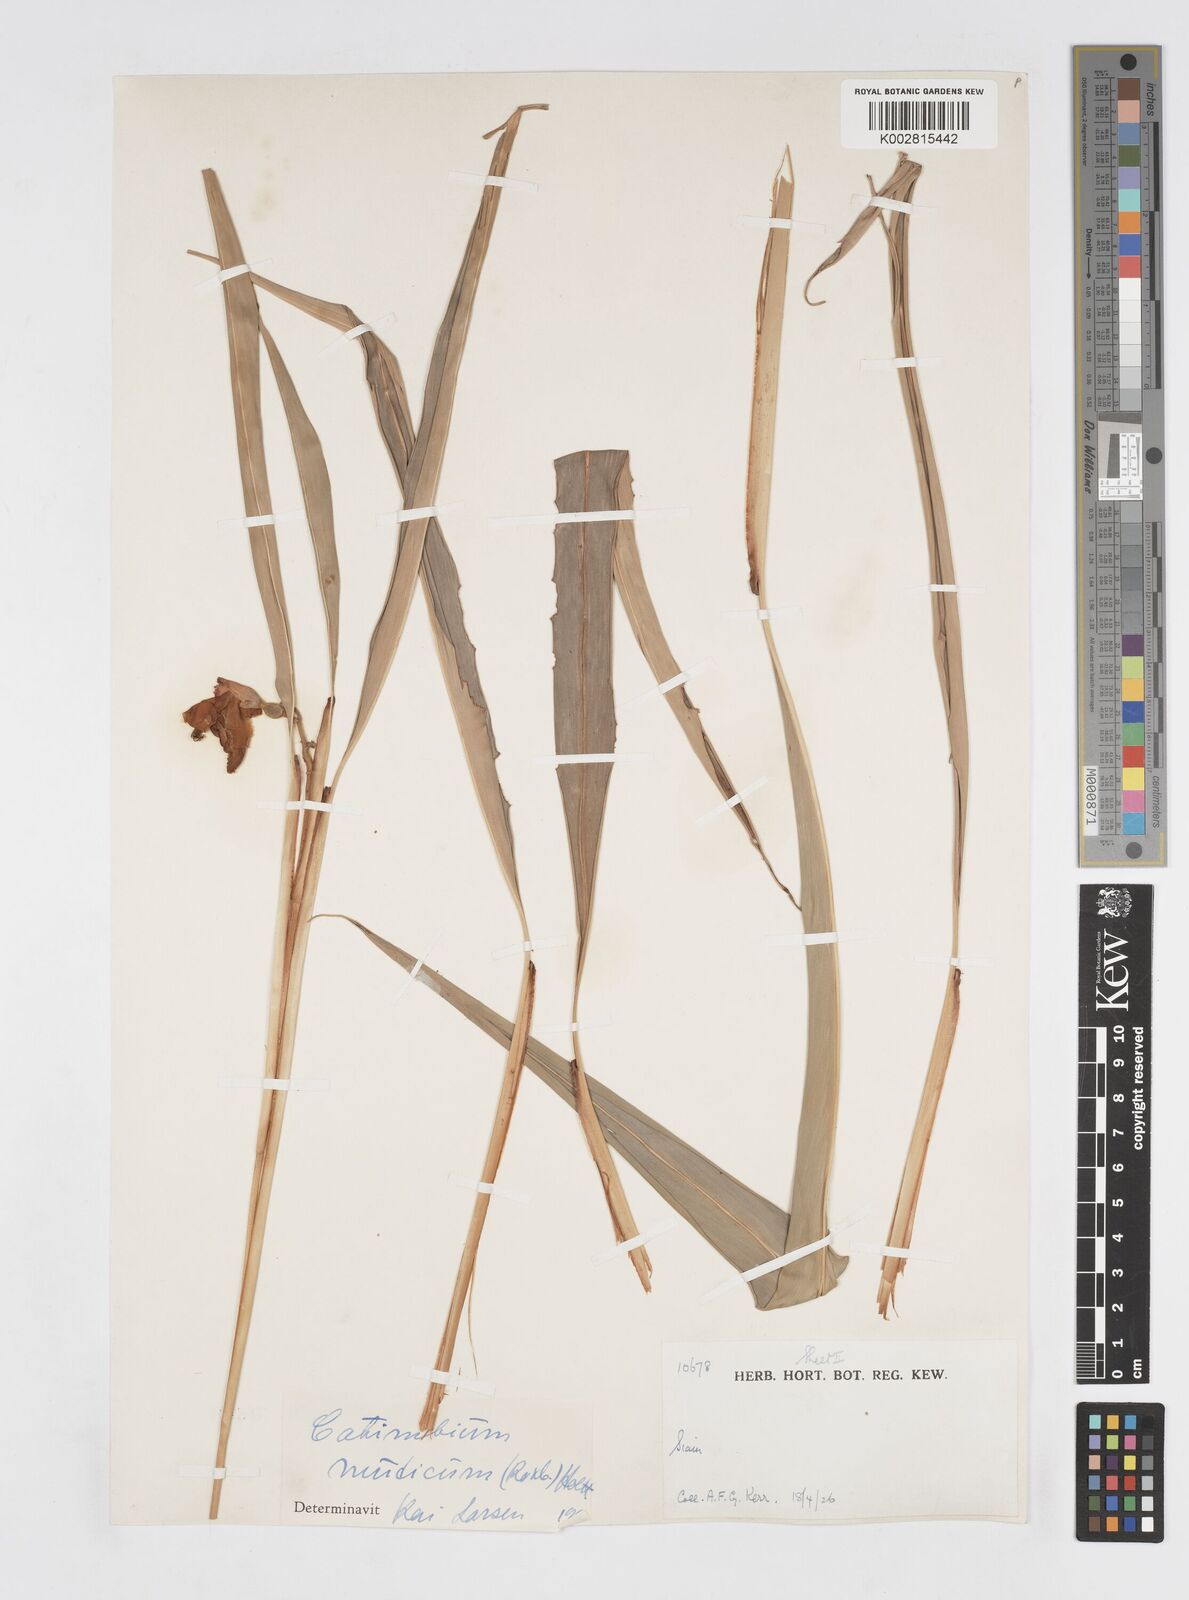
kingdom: Plantae
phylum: Tracheophyta
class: Liliopsida
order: Zingiberales
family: Zingiberaceae
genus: Alpinia
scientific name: Alpinia mutica
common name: Small shell ginger
